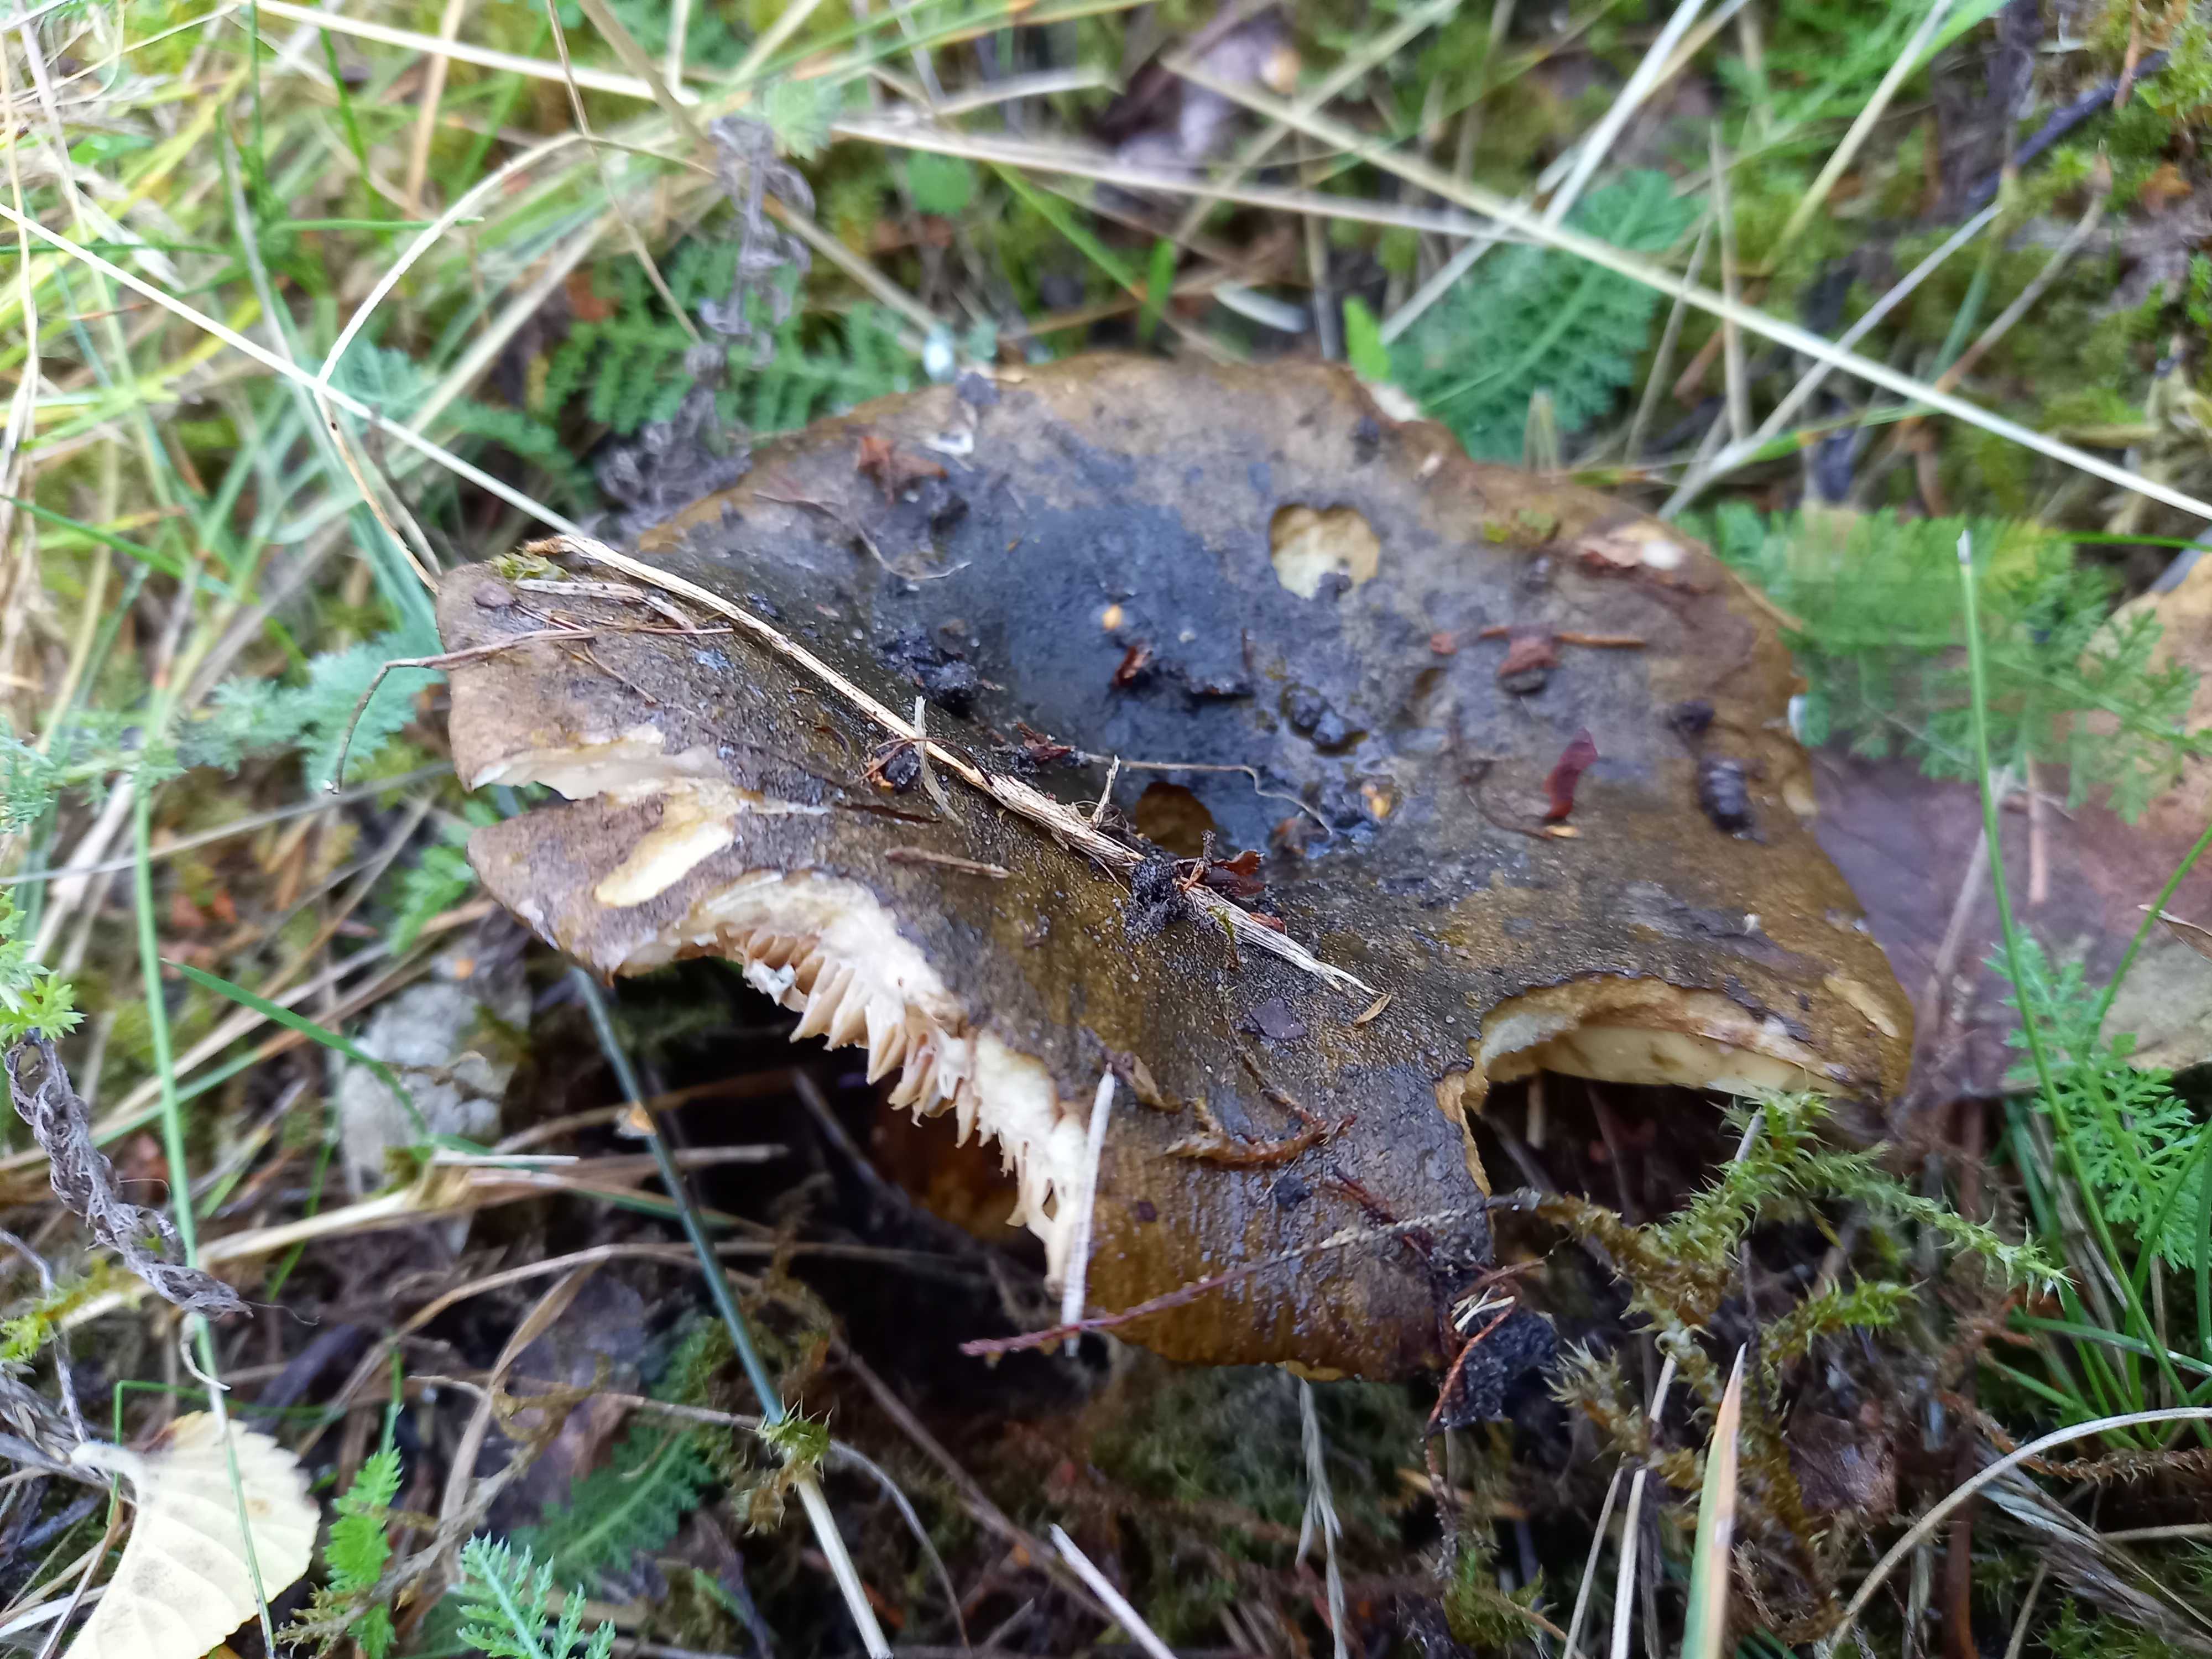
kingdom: Fungi
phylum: Basidiomycota
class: Agaricomycetes
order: Russulales
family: Russulaceae
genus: Lactarius
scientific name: Lactarius necator
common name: manddraber-mælkehat
